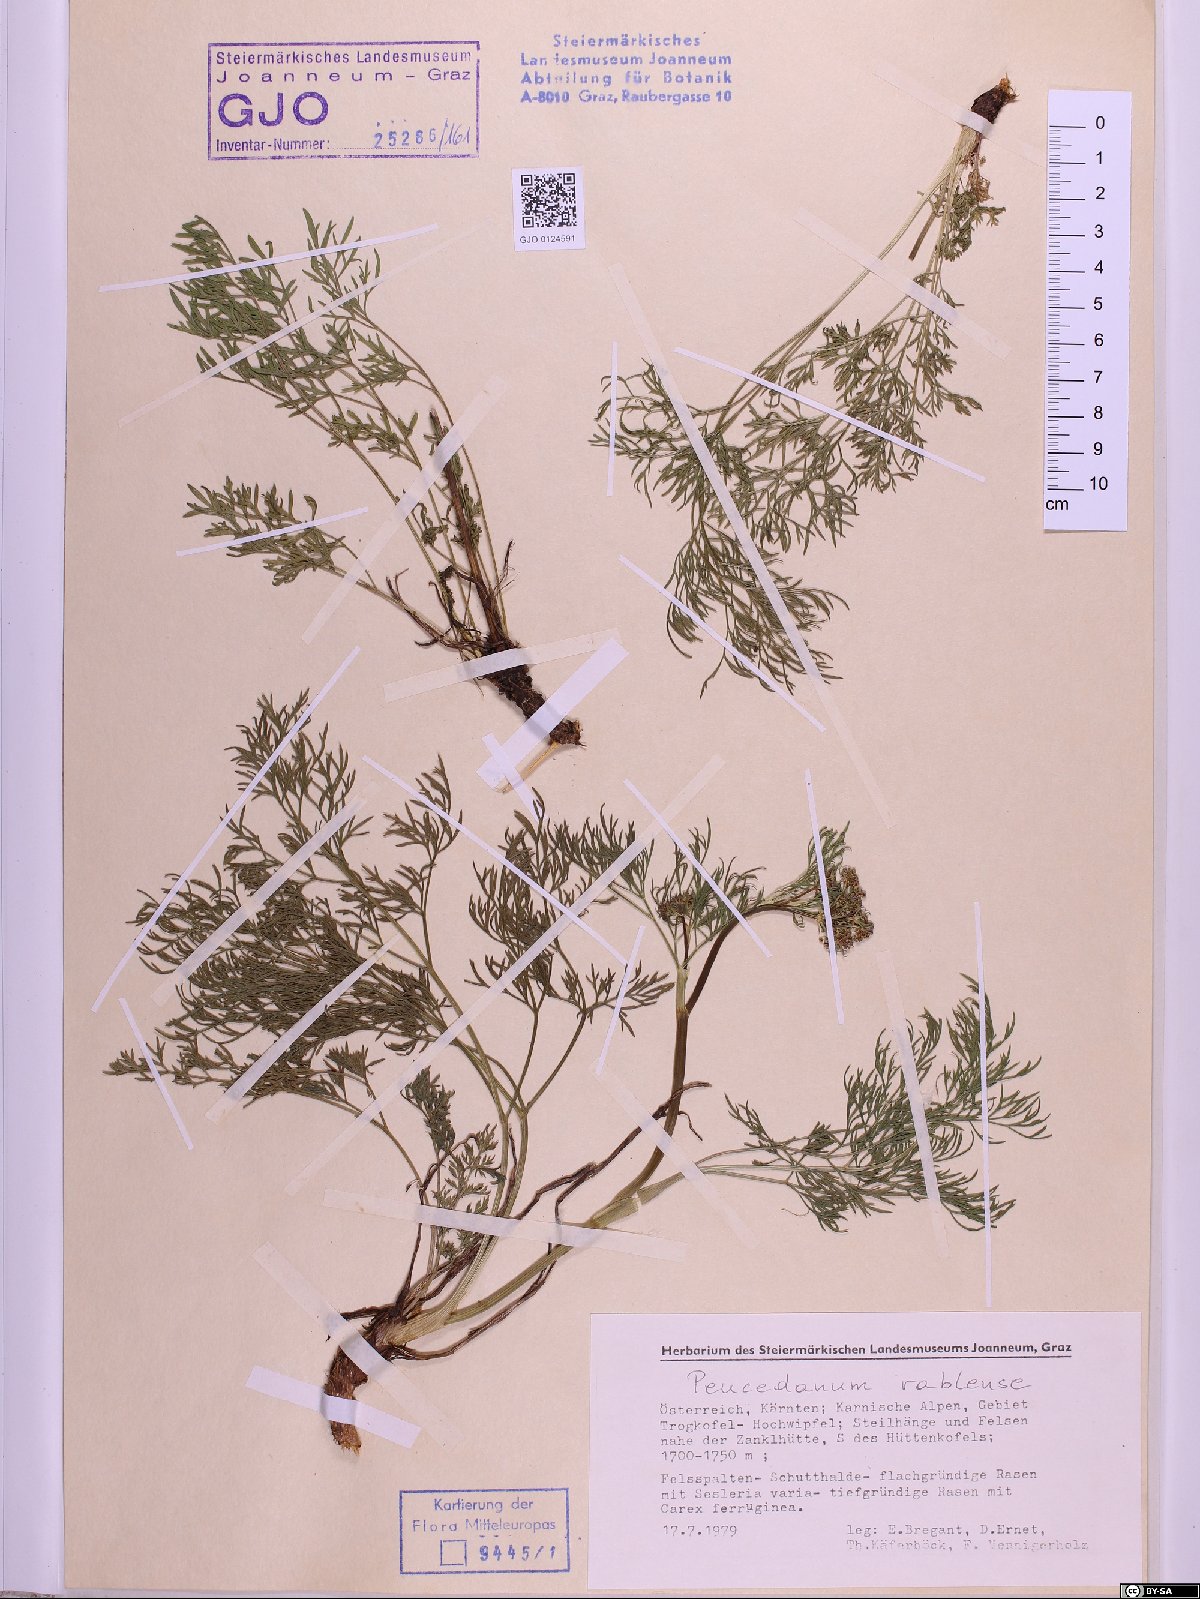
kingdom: Plantae
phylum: Tracheophyta
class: Magnoliopsida
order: Apiales
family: Apiaceae
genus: Peucedanum
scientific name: Peucedanum rablense
